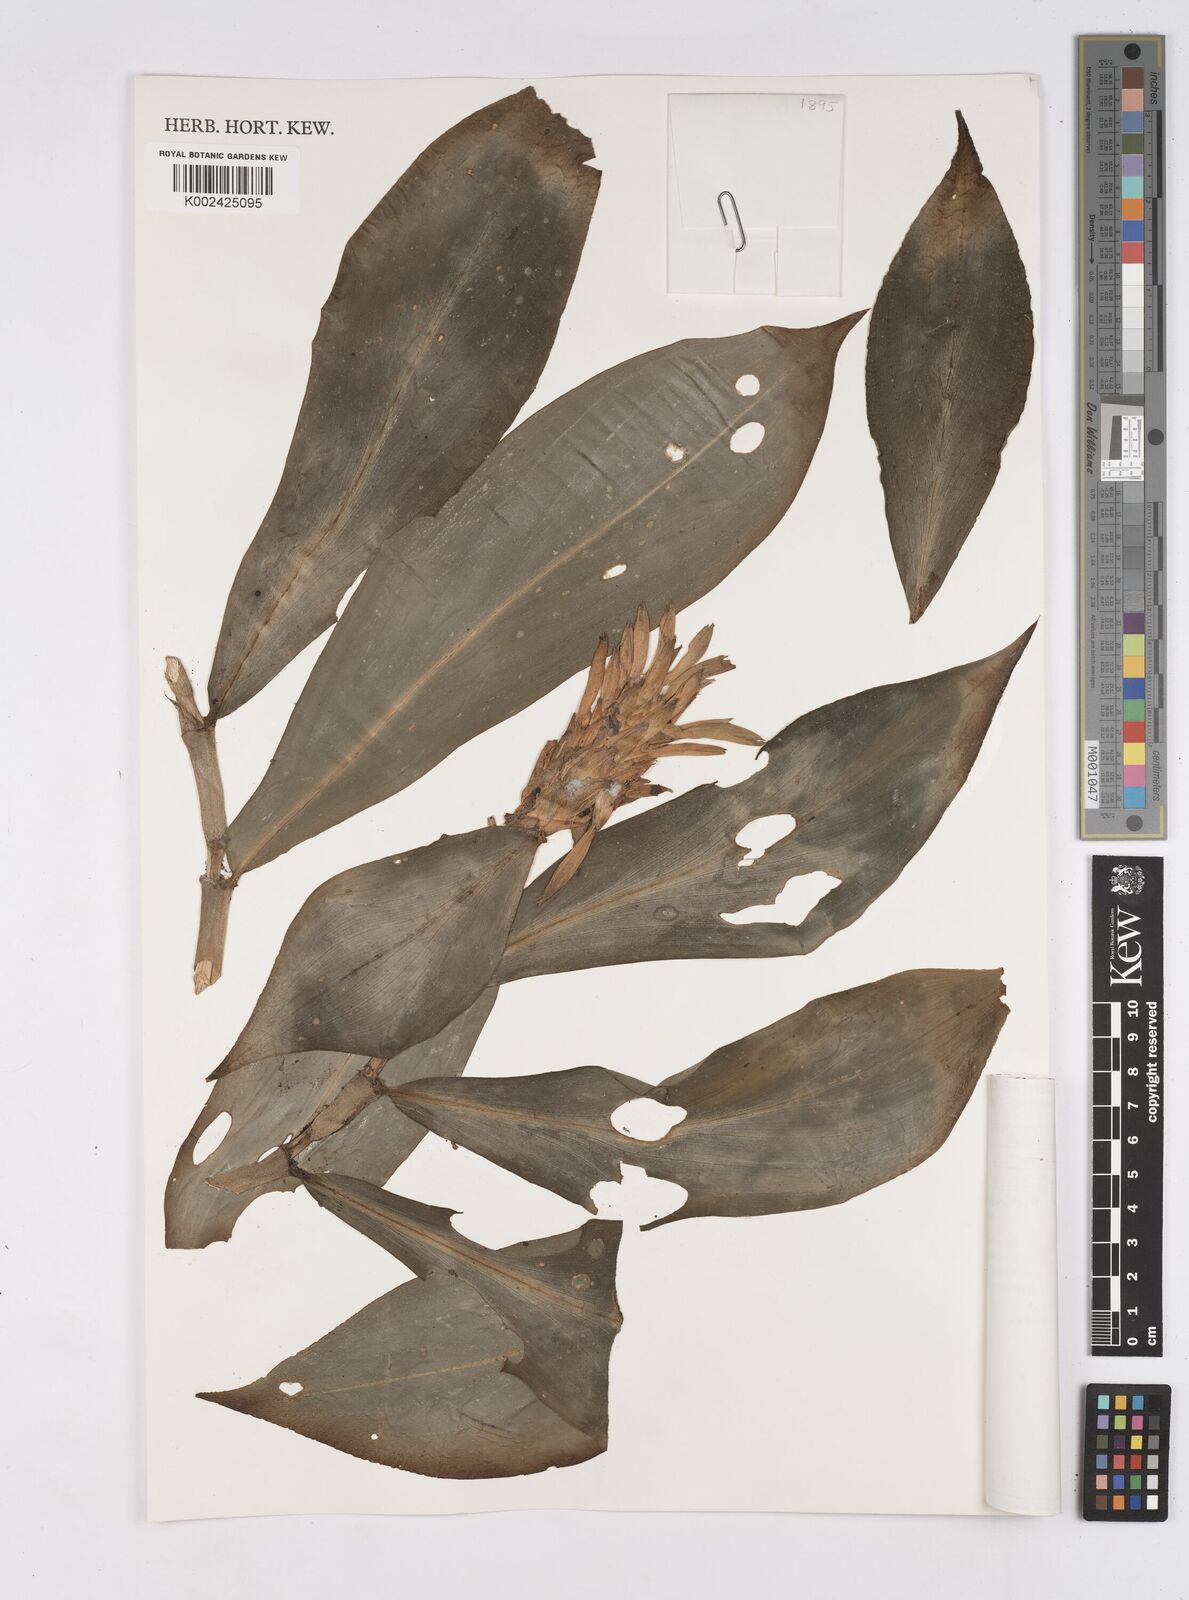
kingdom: Plantae
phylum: Tracheophyta
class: Liliopsida
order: Zingiberales
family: Costaceae
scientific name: Costaceae
